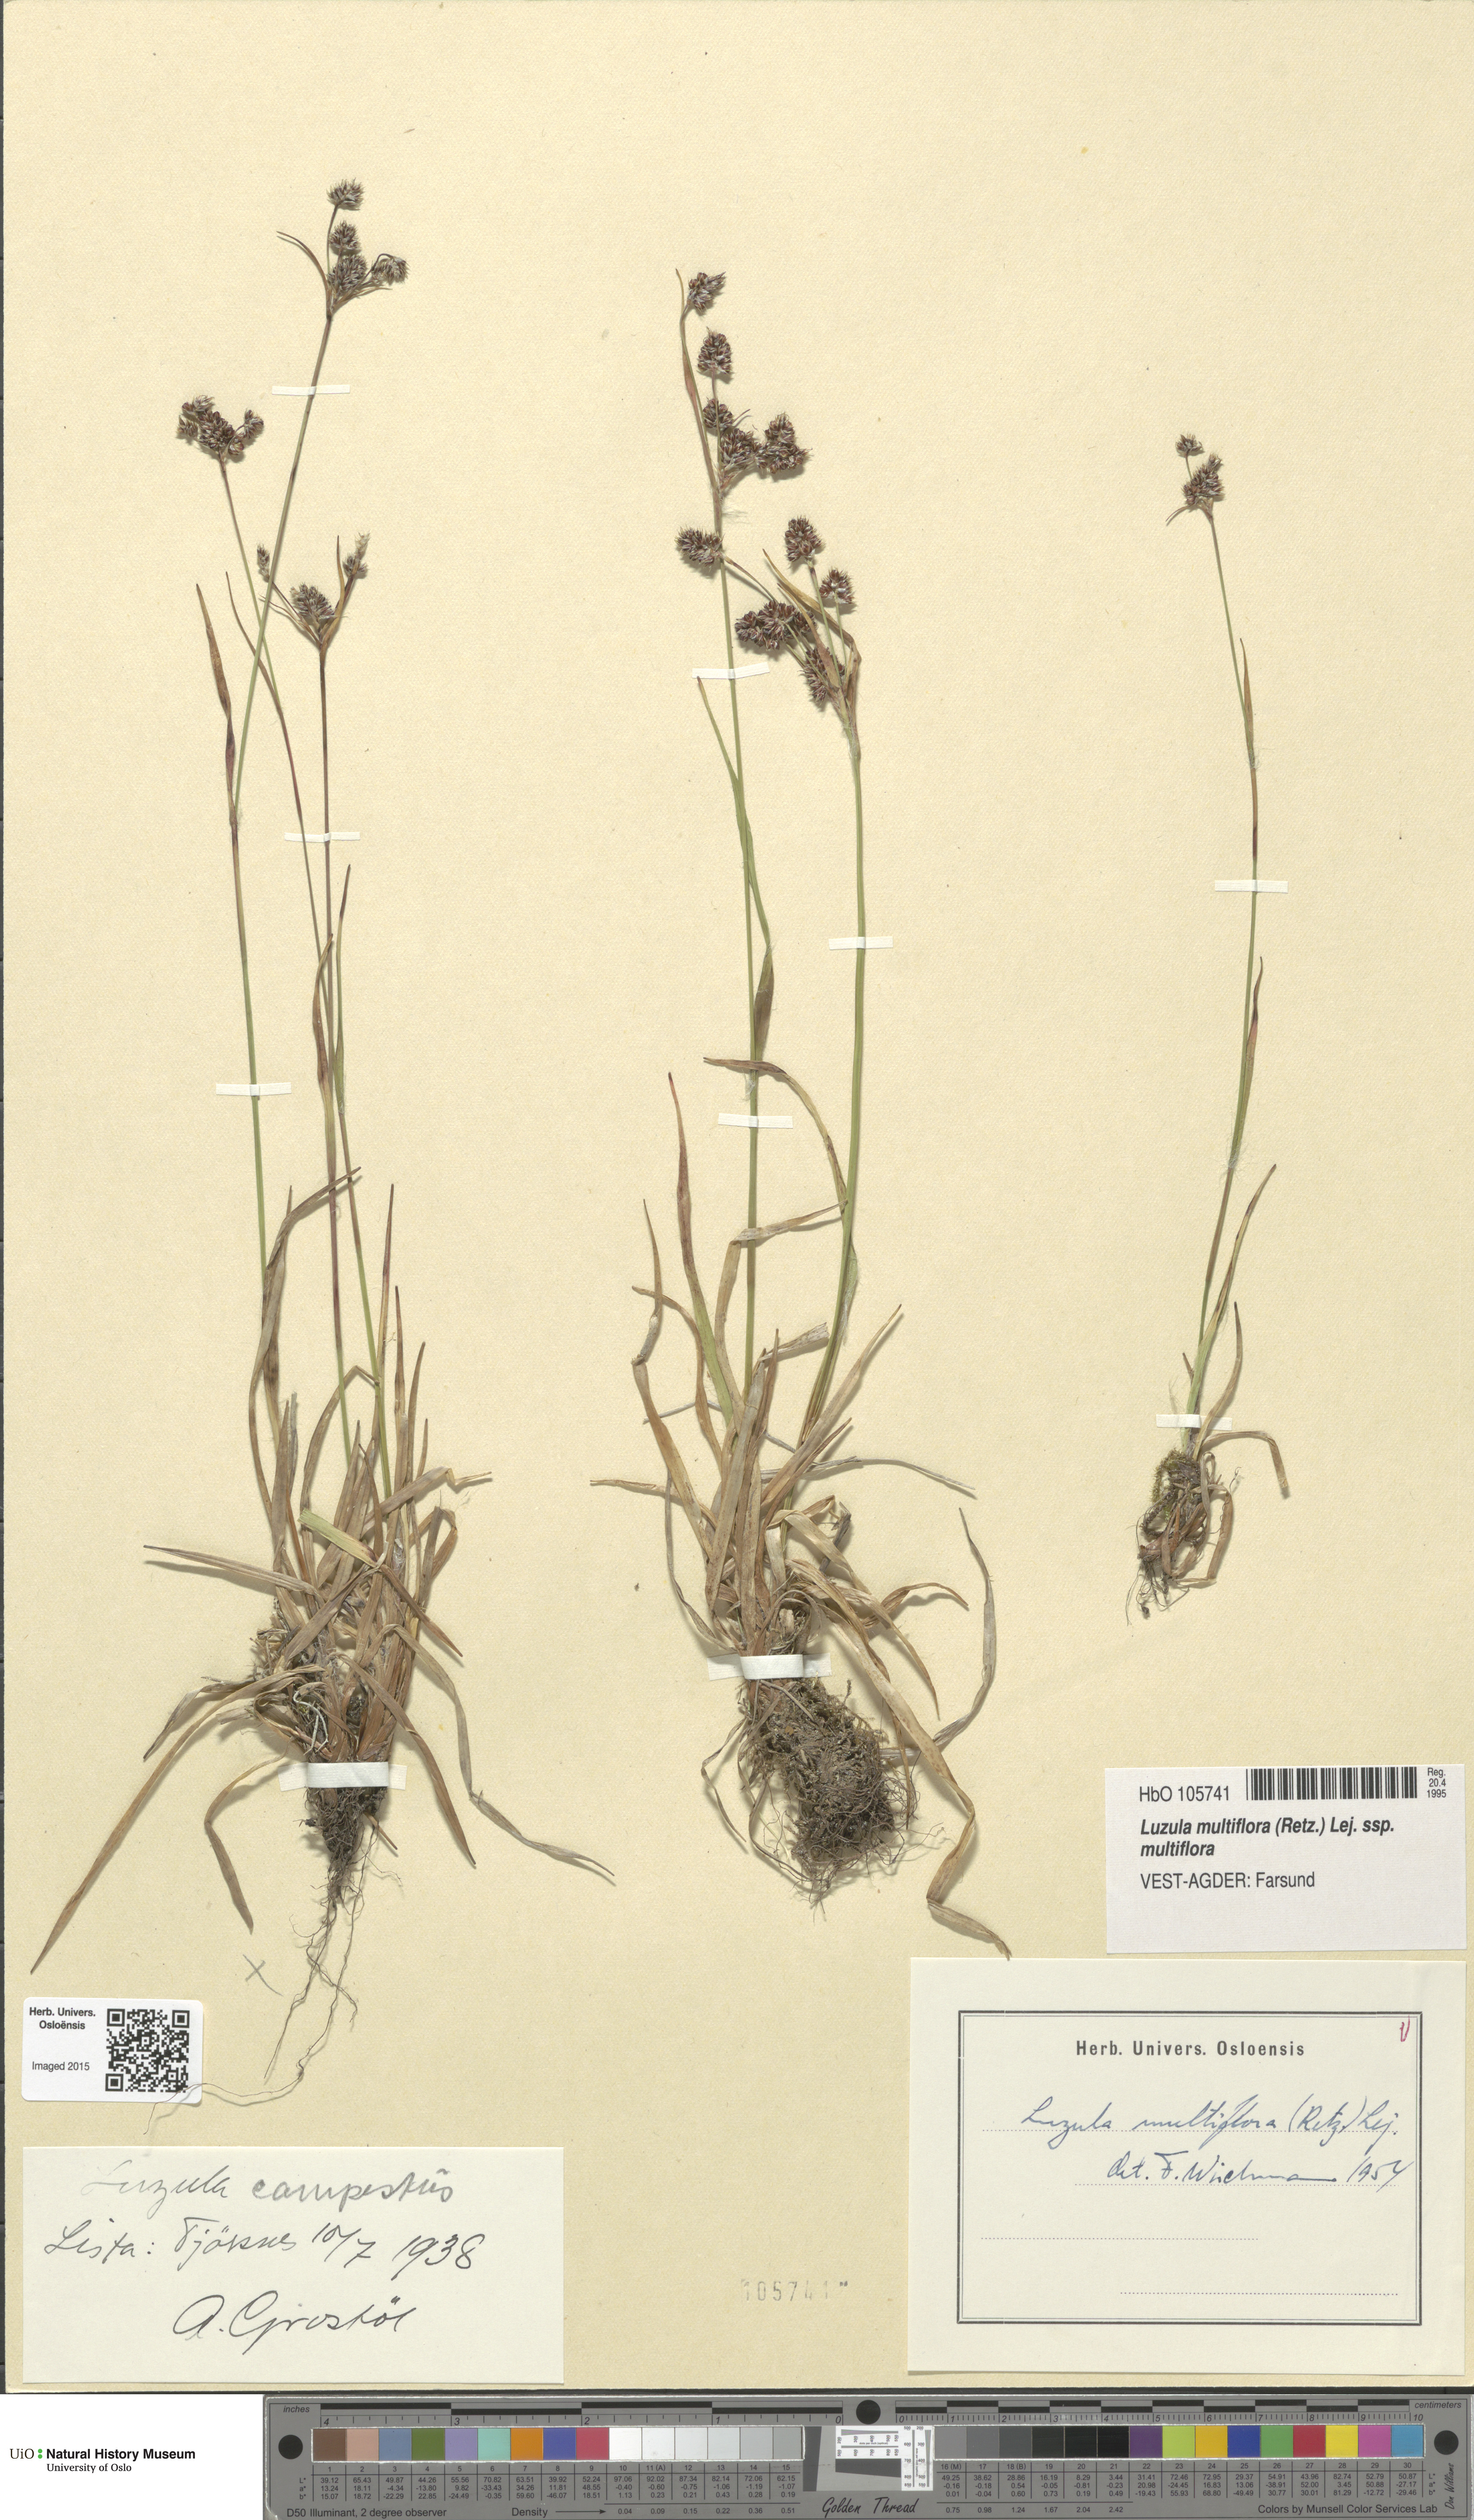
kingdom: Plantae
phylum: Tracheophyta
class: Liliopsida
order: Poales
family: Juncaceae
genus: Luzula
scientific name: Luzula multiflora
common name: Heath wood-rush
